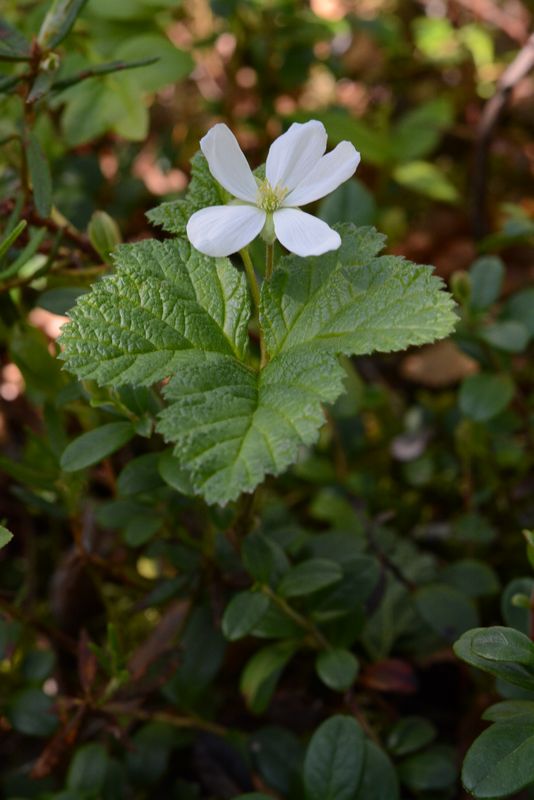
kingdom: Plantae
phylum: Tracheophyta
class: Magnoliopsida
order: Rosales
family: Rosaceae
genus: Rubus
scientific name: Rubus chamaemorus
